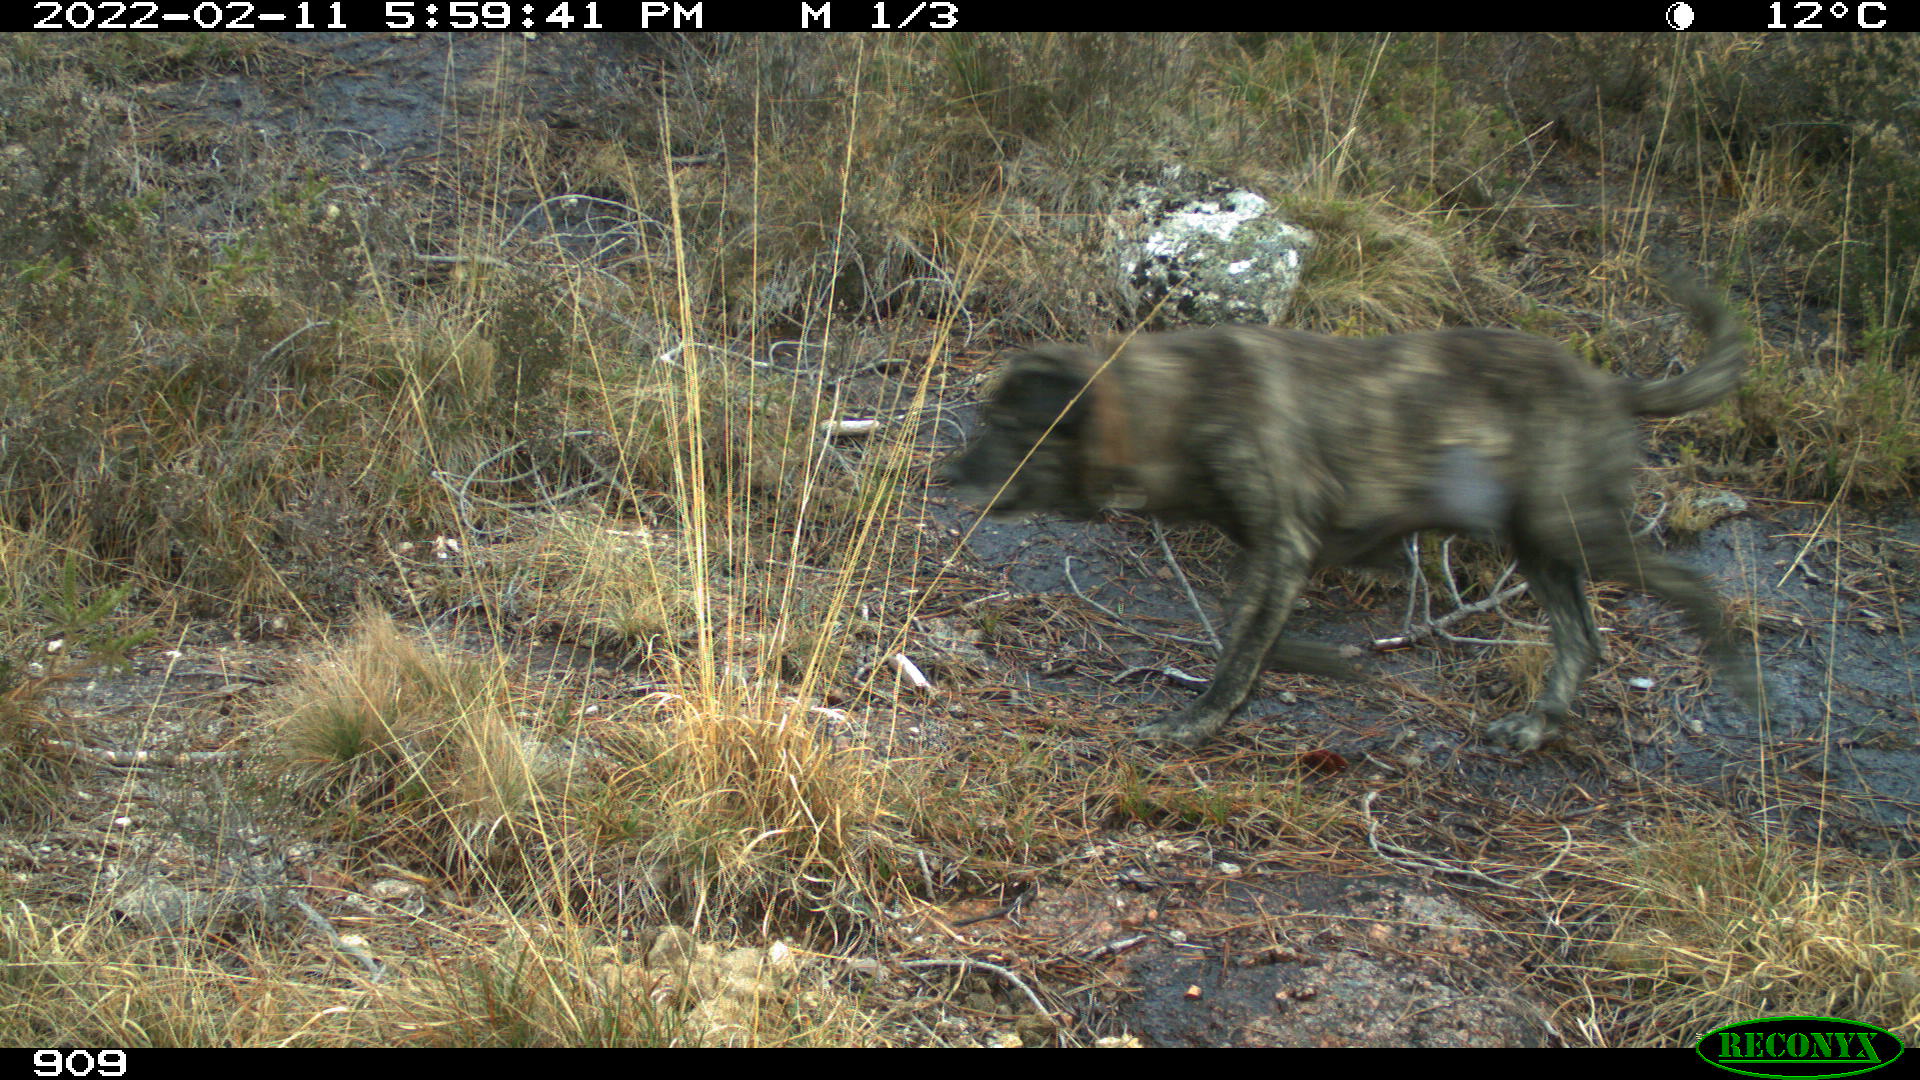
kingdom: Animalia
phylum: Chordata
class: Mammalia
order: Carnivora
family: Canidae
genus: Canis
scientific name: Canis lupus
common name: Gray wolf
